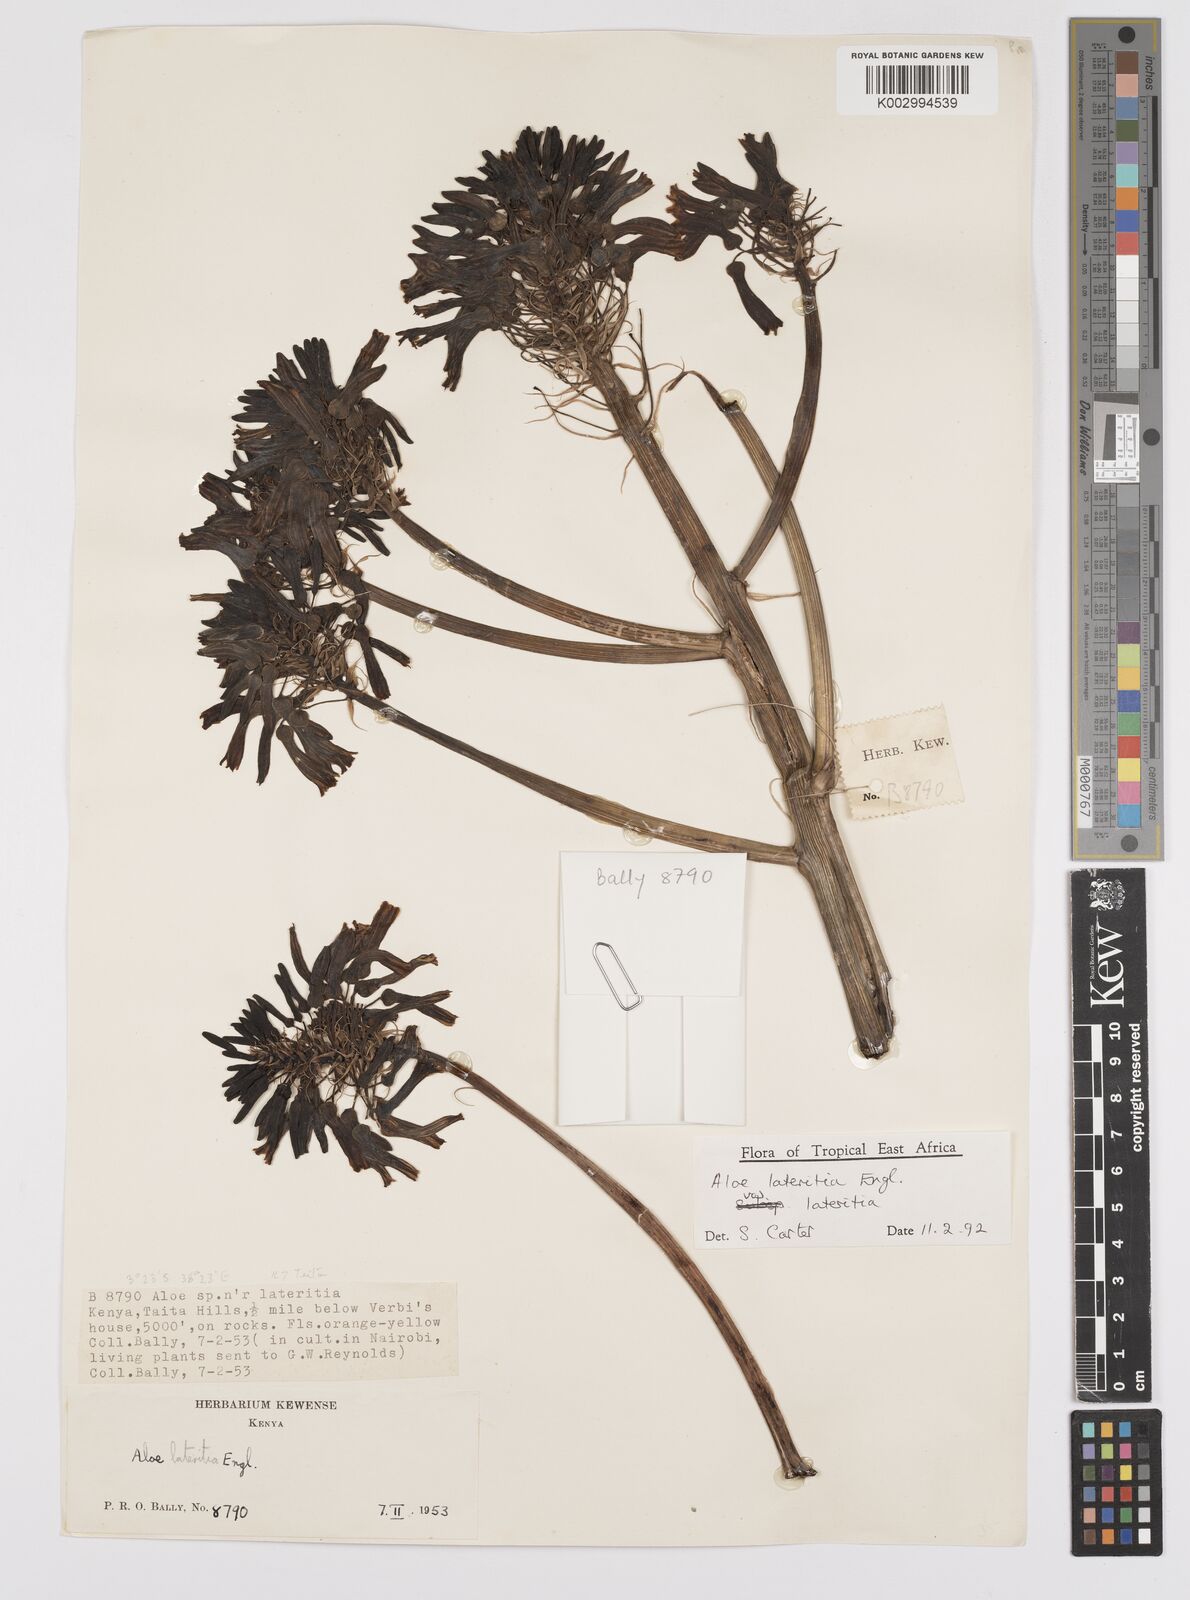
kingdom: Plantae
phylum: Tracheophyta
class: Liliopsida
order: Asparagales
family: Asphodelaceae
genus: Aloe
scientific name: Aloe lateritia
